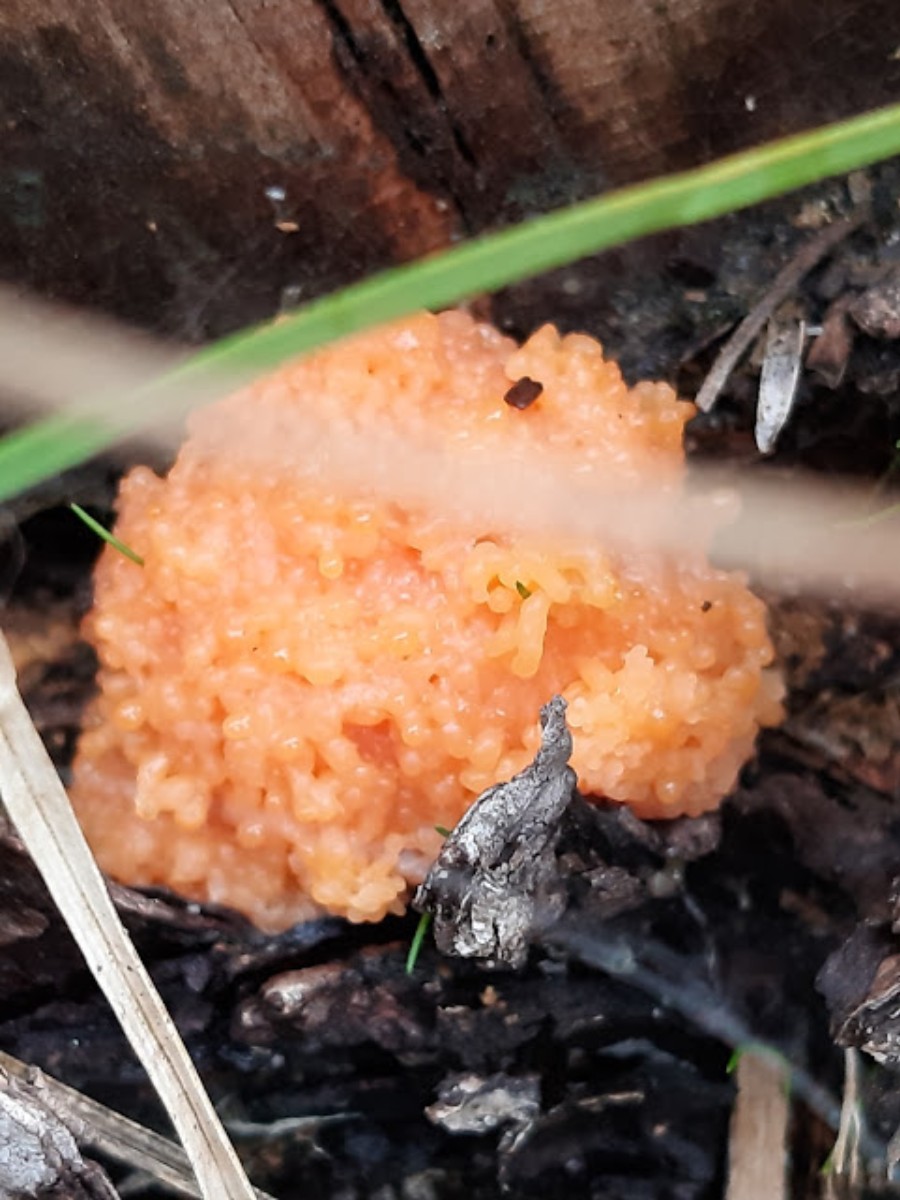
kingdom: Protozoa
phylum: Mycetozoa
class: Myxomycetes
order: Cribrariales
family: Tubiferaceae
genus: Tubifera
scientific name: Tubifera ferruginosa
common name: kanel-støvrør
